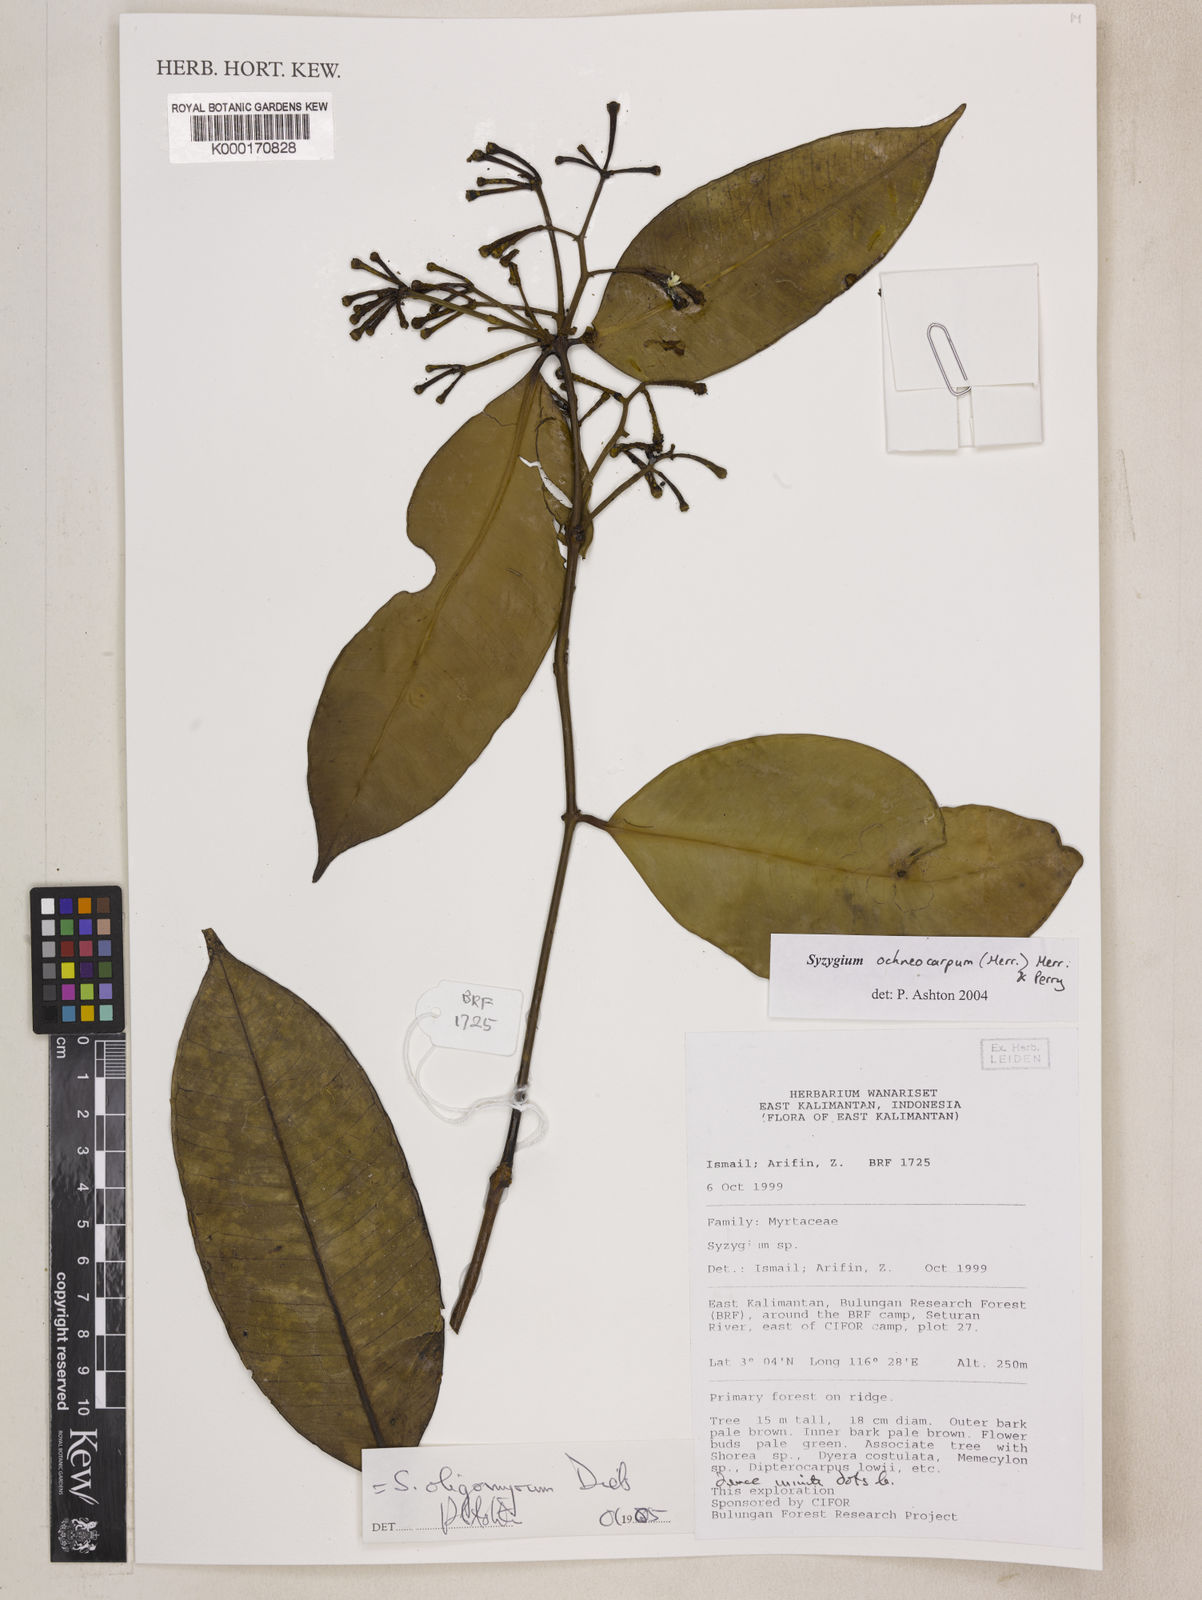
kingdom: Plantae
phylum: Tracheophyta
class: Magnoliopsida
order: Myrtales
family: Myrtaceae
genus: Syzygium
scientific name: Syzygium oligomyrum
